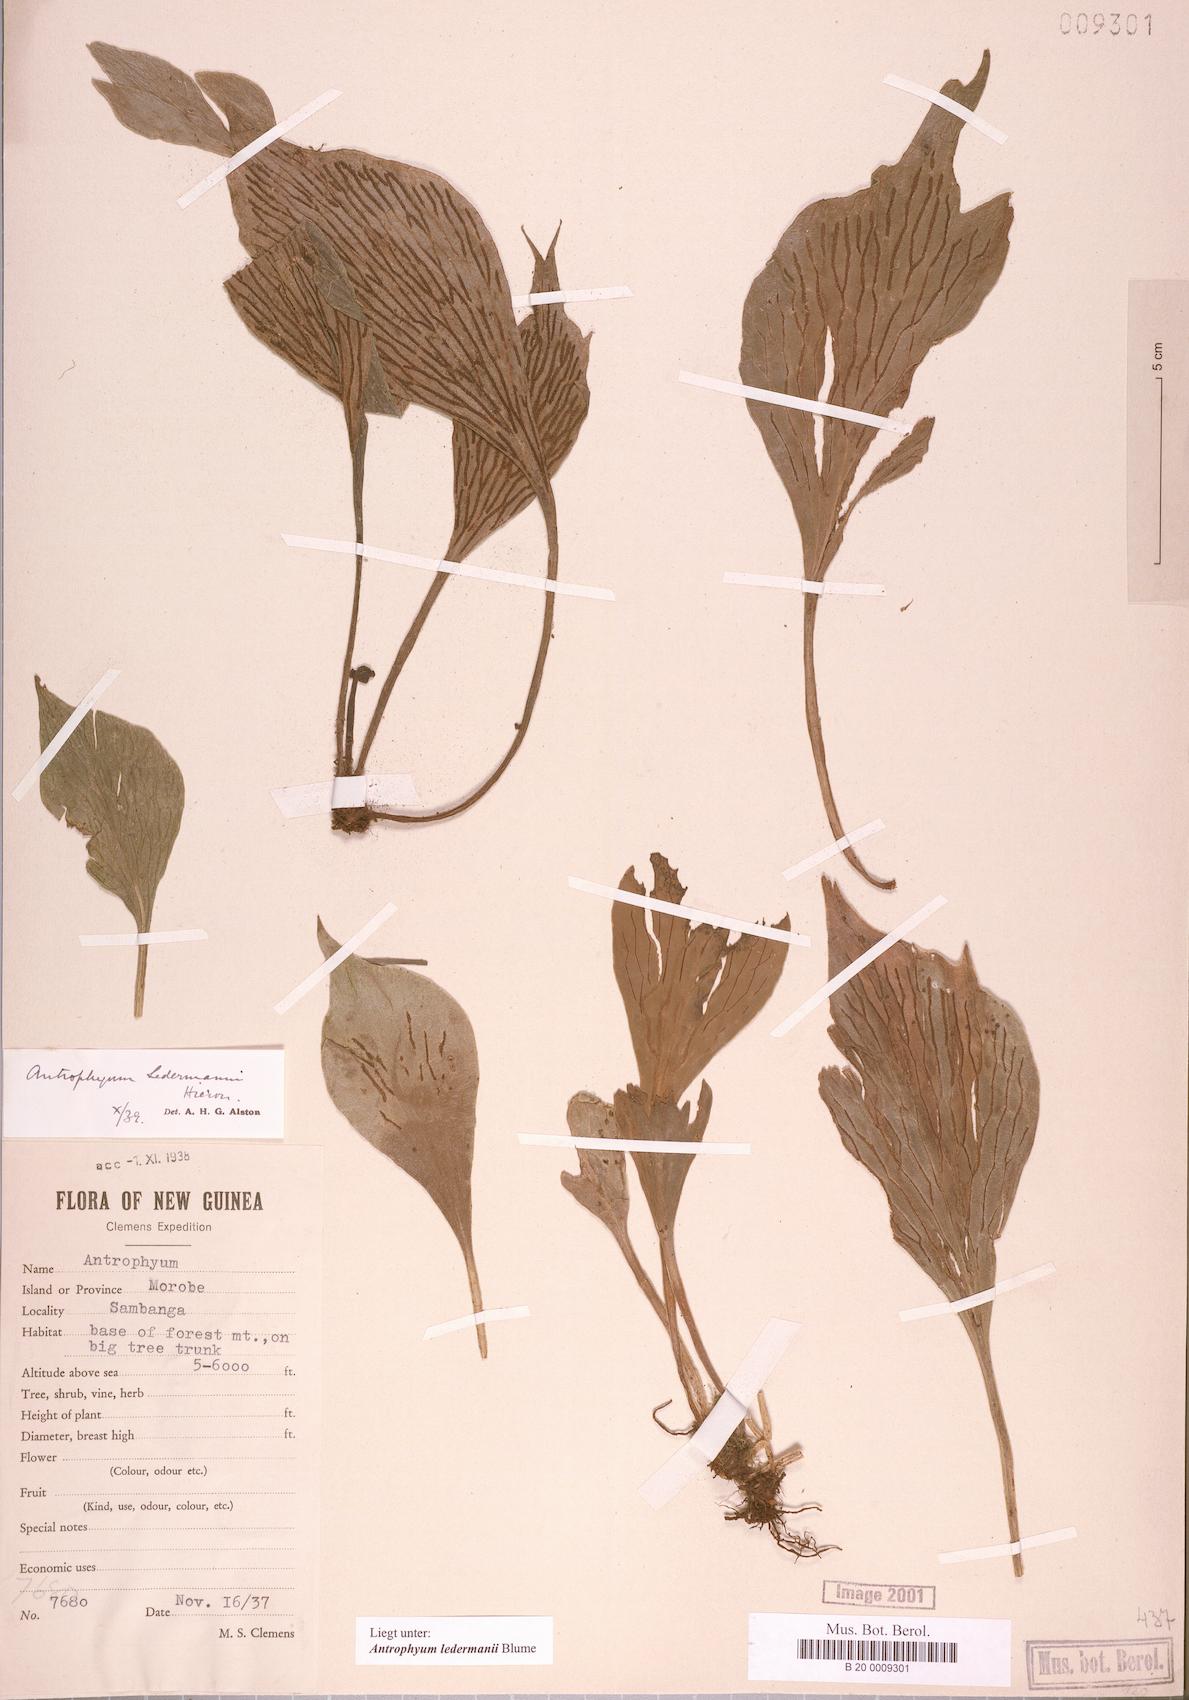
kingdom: Plantae
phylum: Tracheophyta
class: Polypodiopsida
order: Polypodiales
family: Pteridaceae
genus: Antrophyum
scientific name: Antrophyum ledermannii
